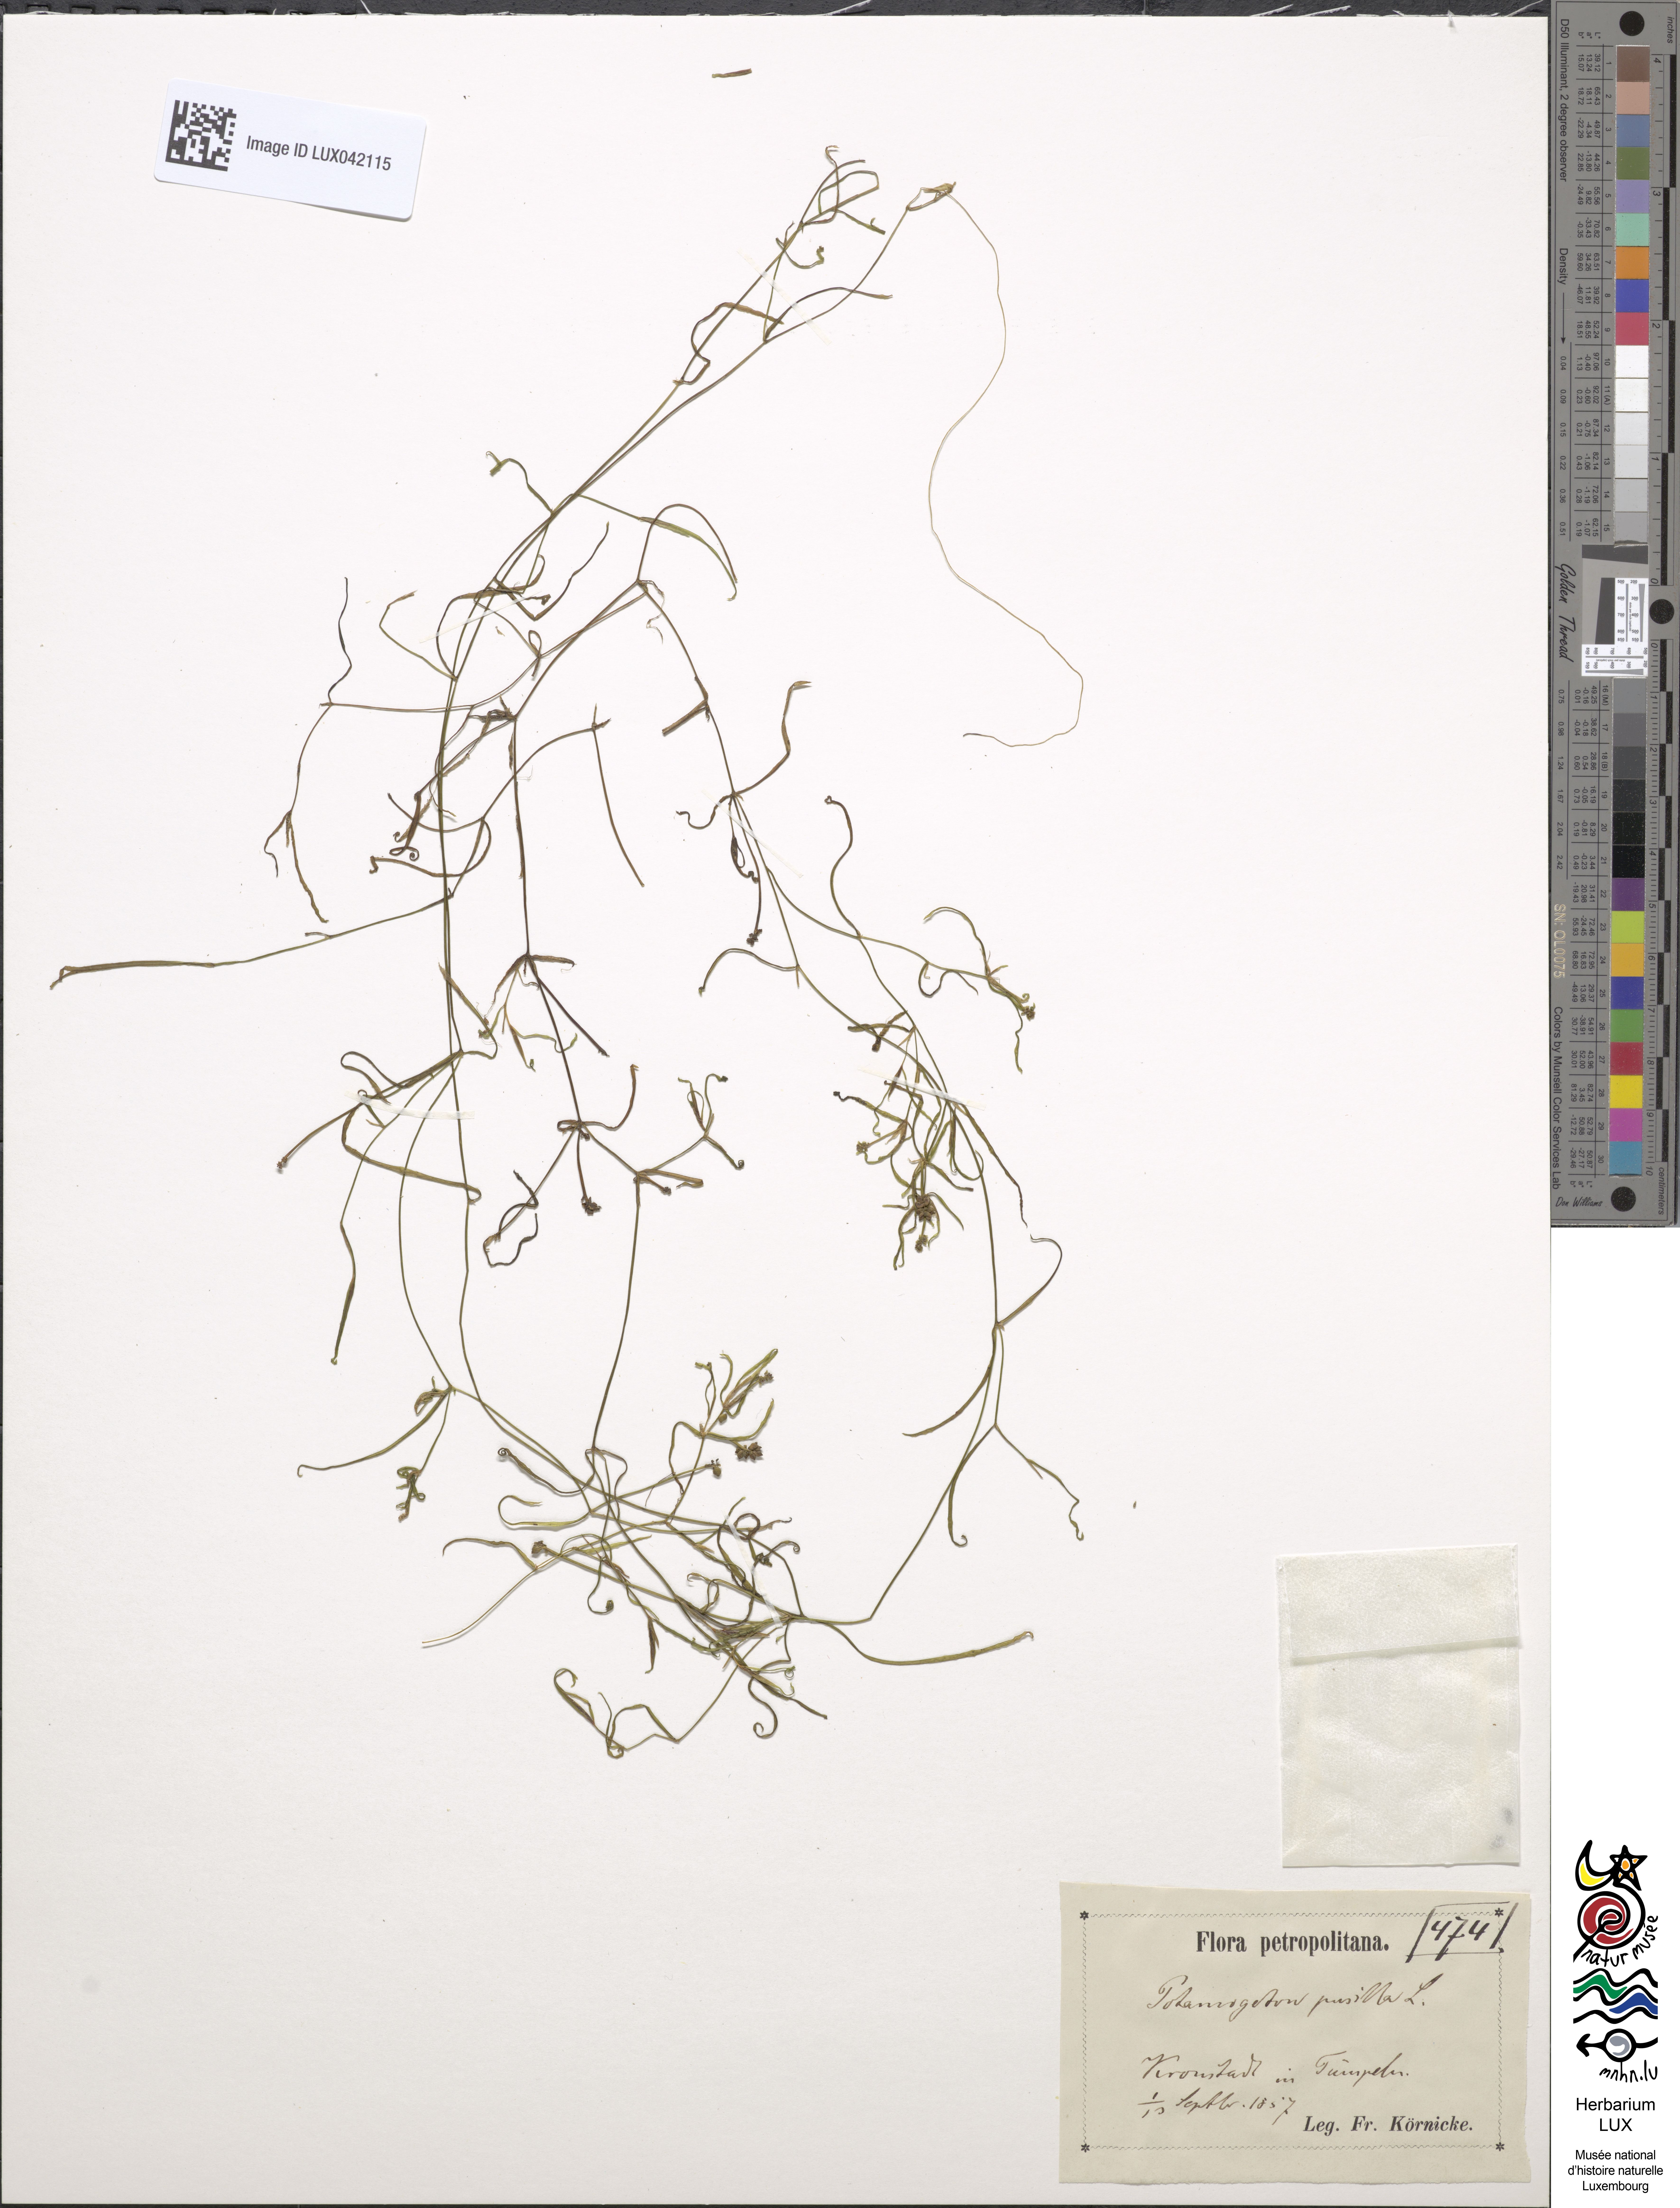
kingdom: Plantae
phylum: Tracheophyta
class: Liliopsida
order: Alismatales
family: Potamogetonaceae
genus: Potamogeton
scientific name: Potamogeton pusillus
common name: Lesser pondweed
